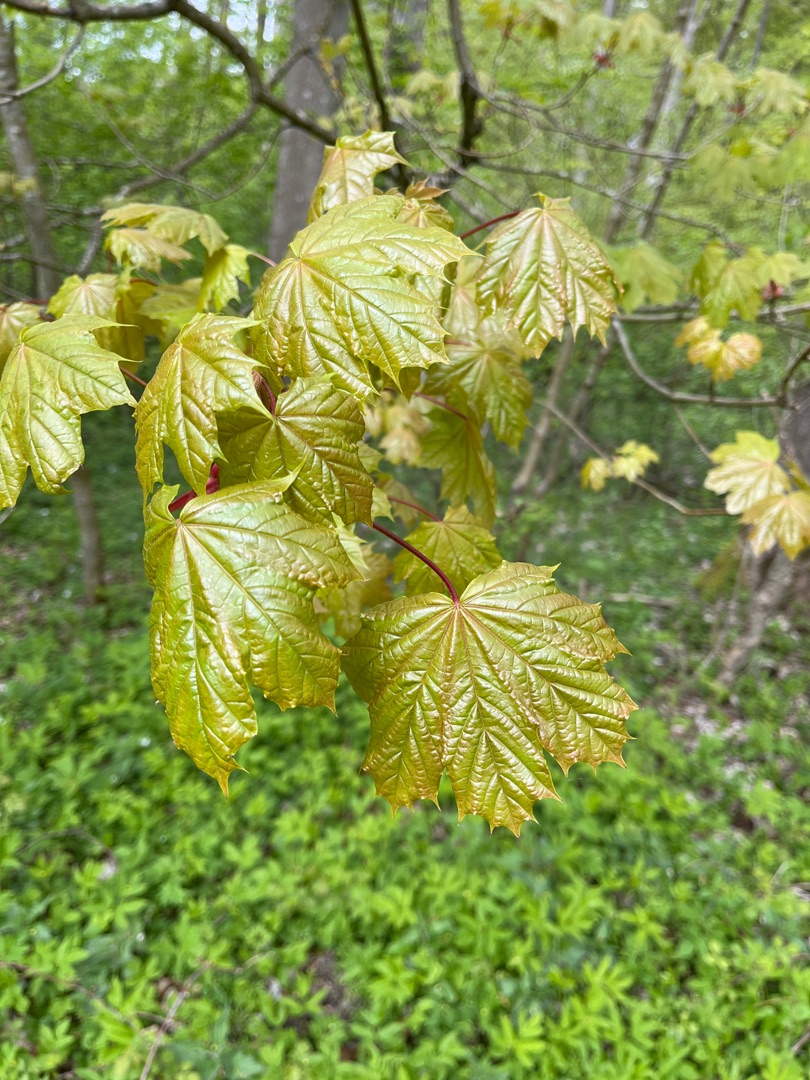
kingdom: Plantae
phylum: Tracheophyta
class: Magnoliopsida
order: Sapindales
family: Sapindaceae
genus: Acer
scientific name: Acer platanoides
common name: Spids-løn
